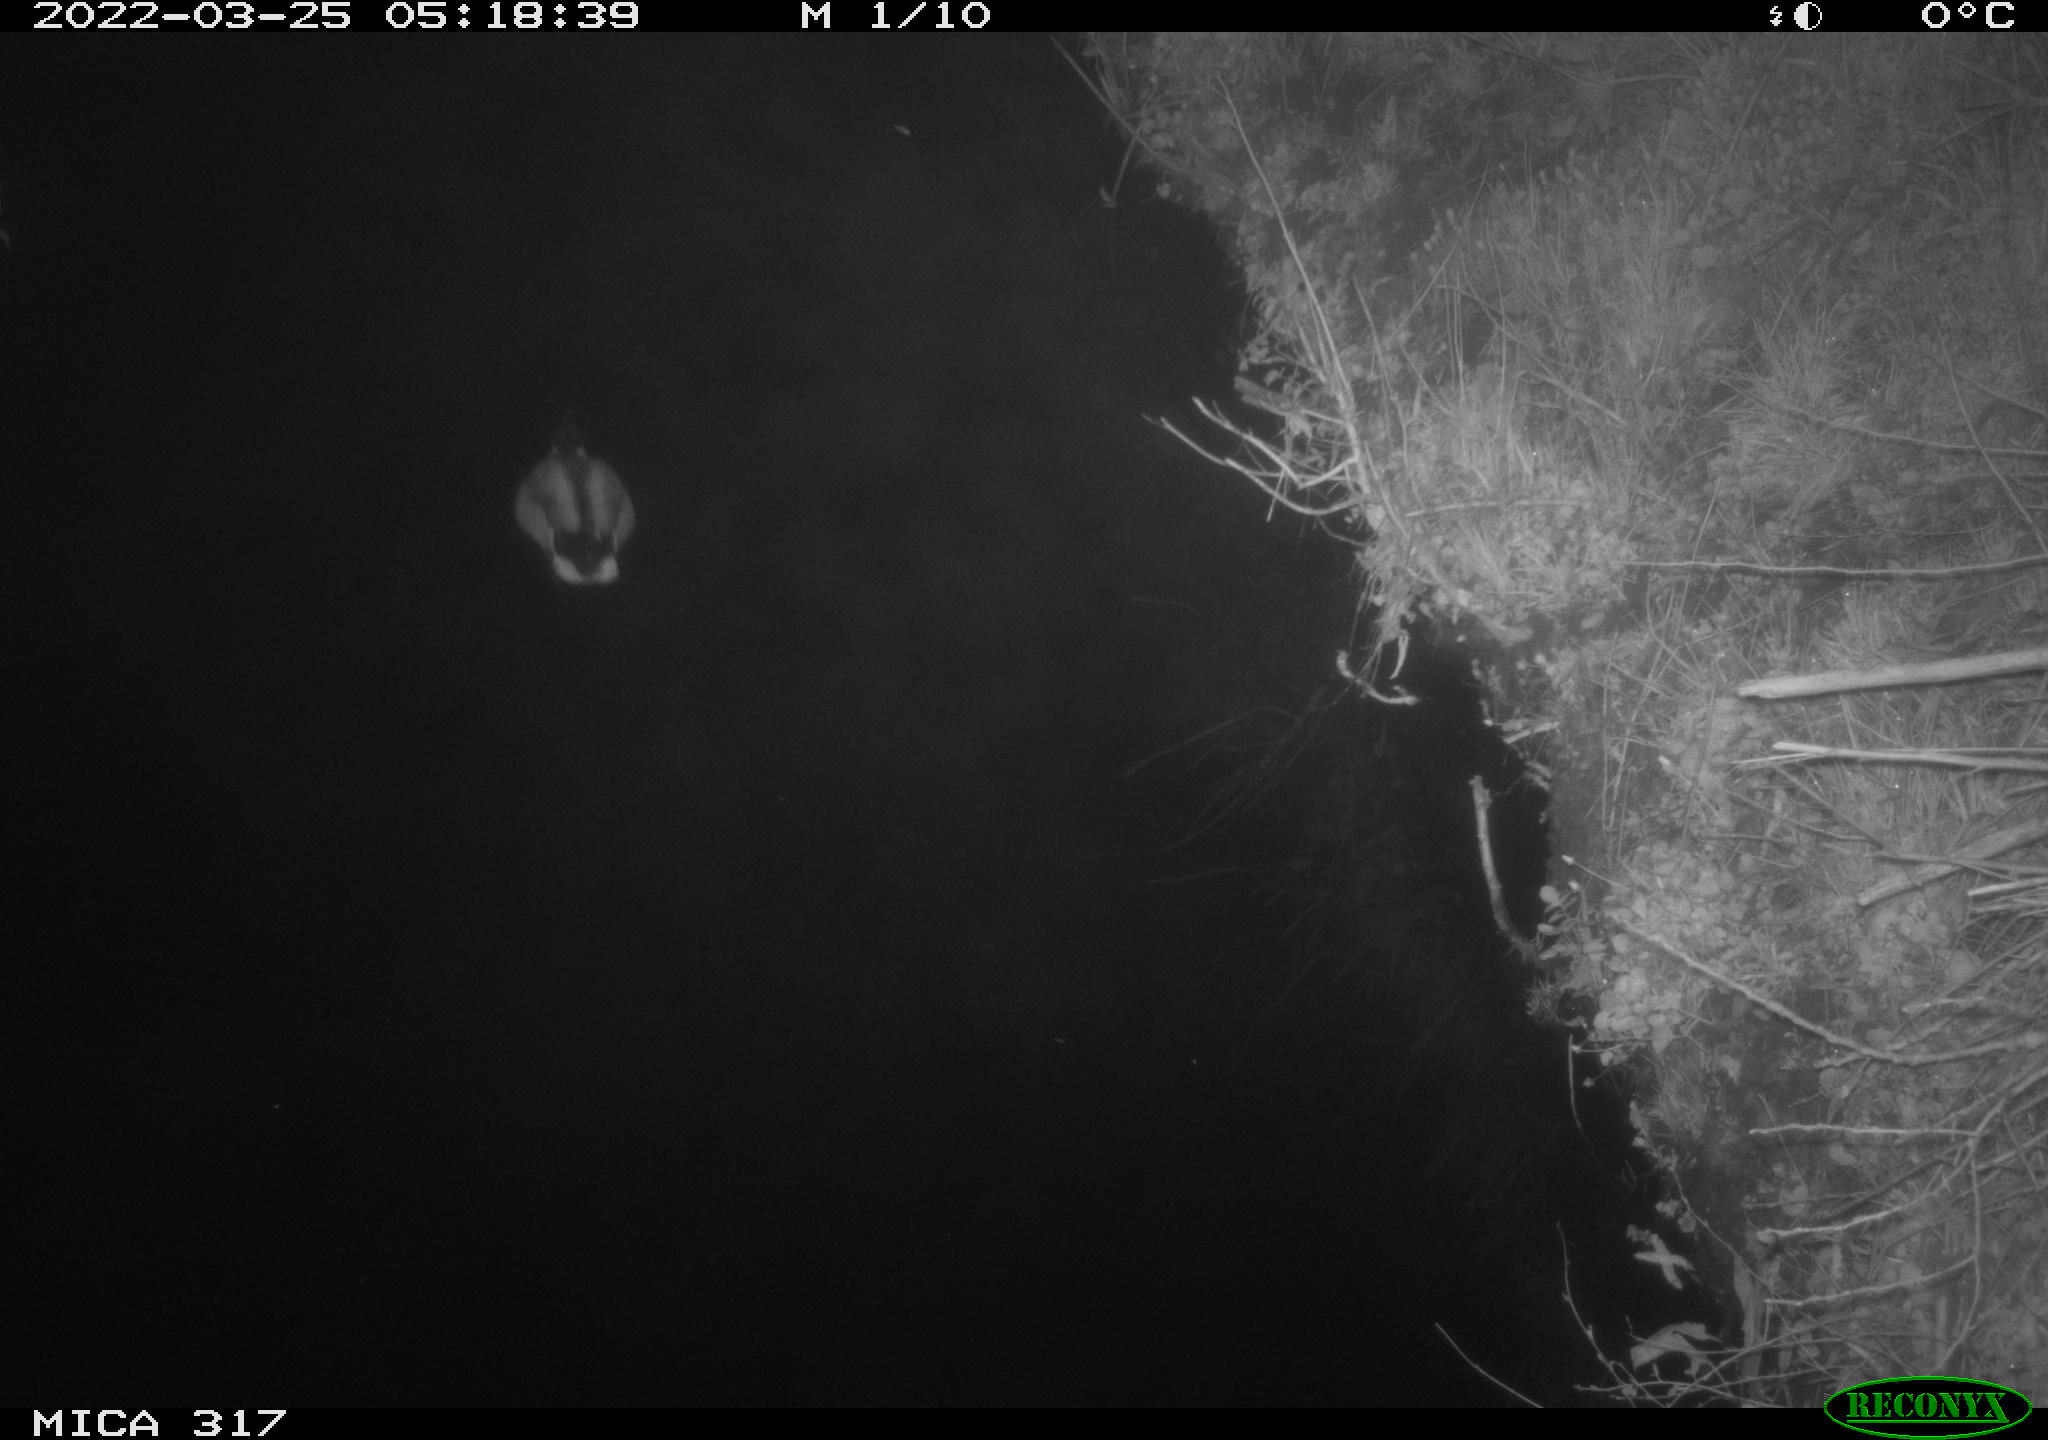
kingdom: Animalia
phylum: Chordata
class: Aves
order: Anseriformes
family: Anatidae
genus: Anas
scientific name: Anas platyrhynchos
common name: Mallard
